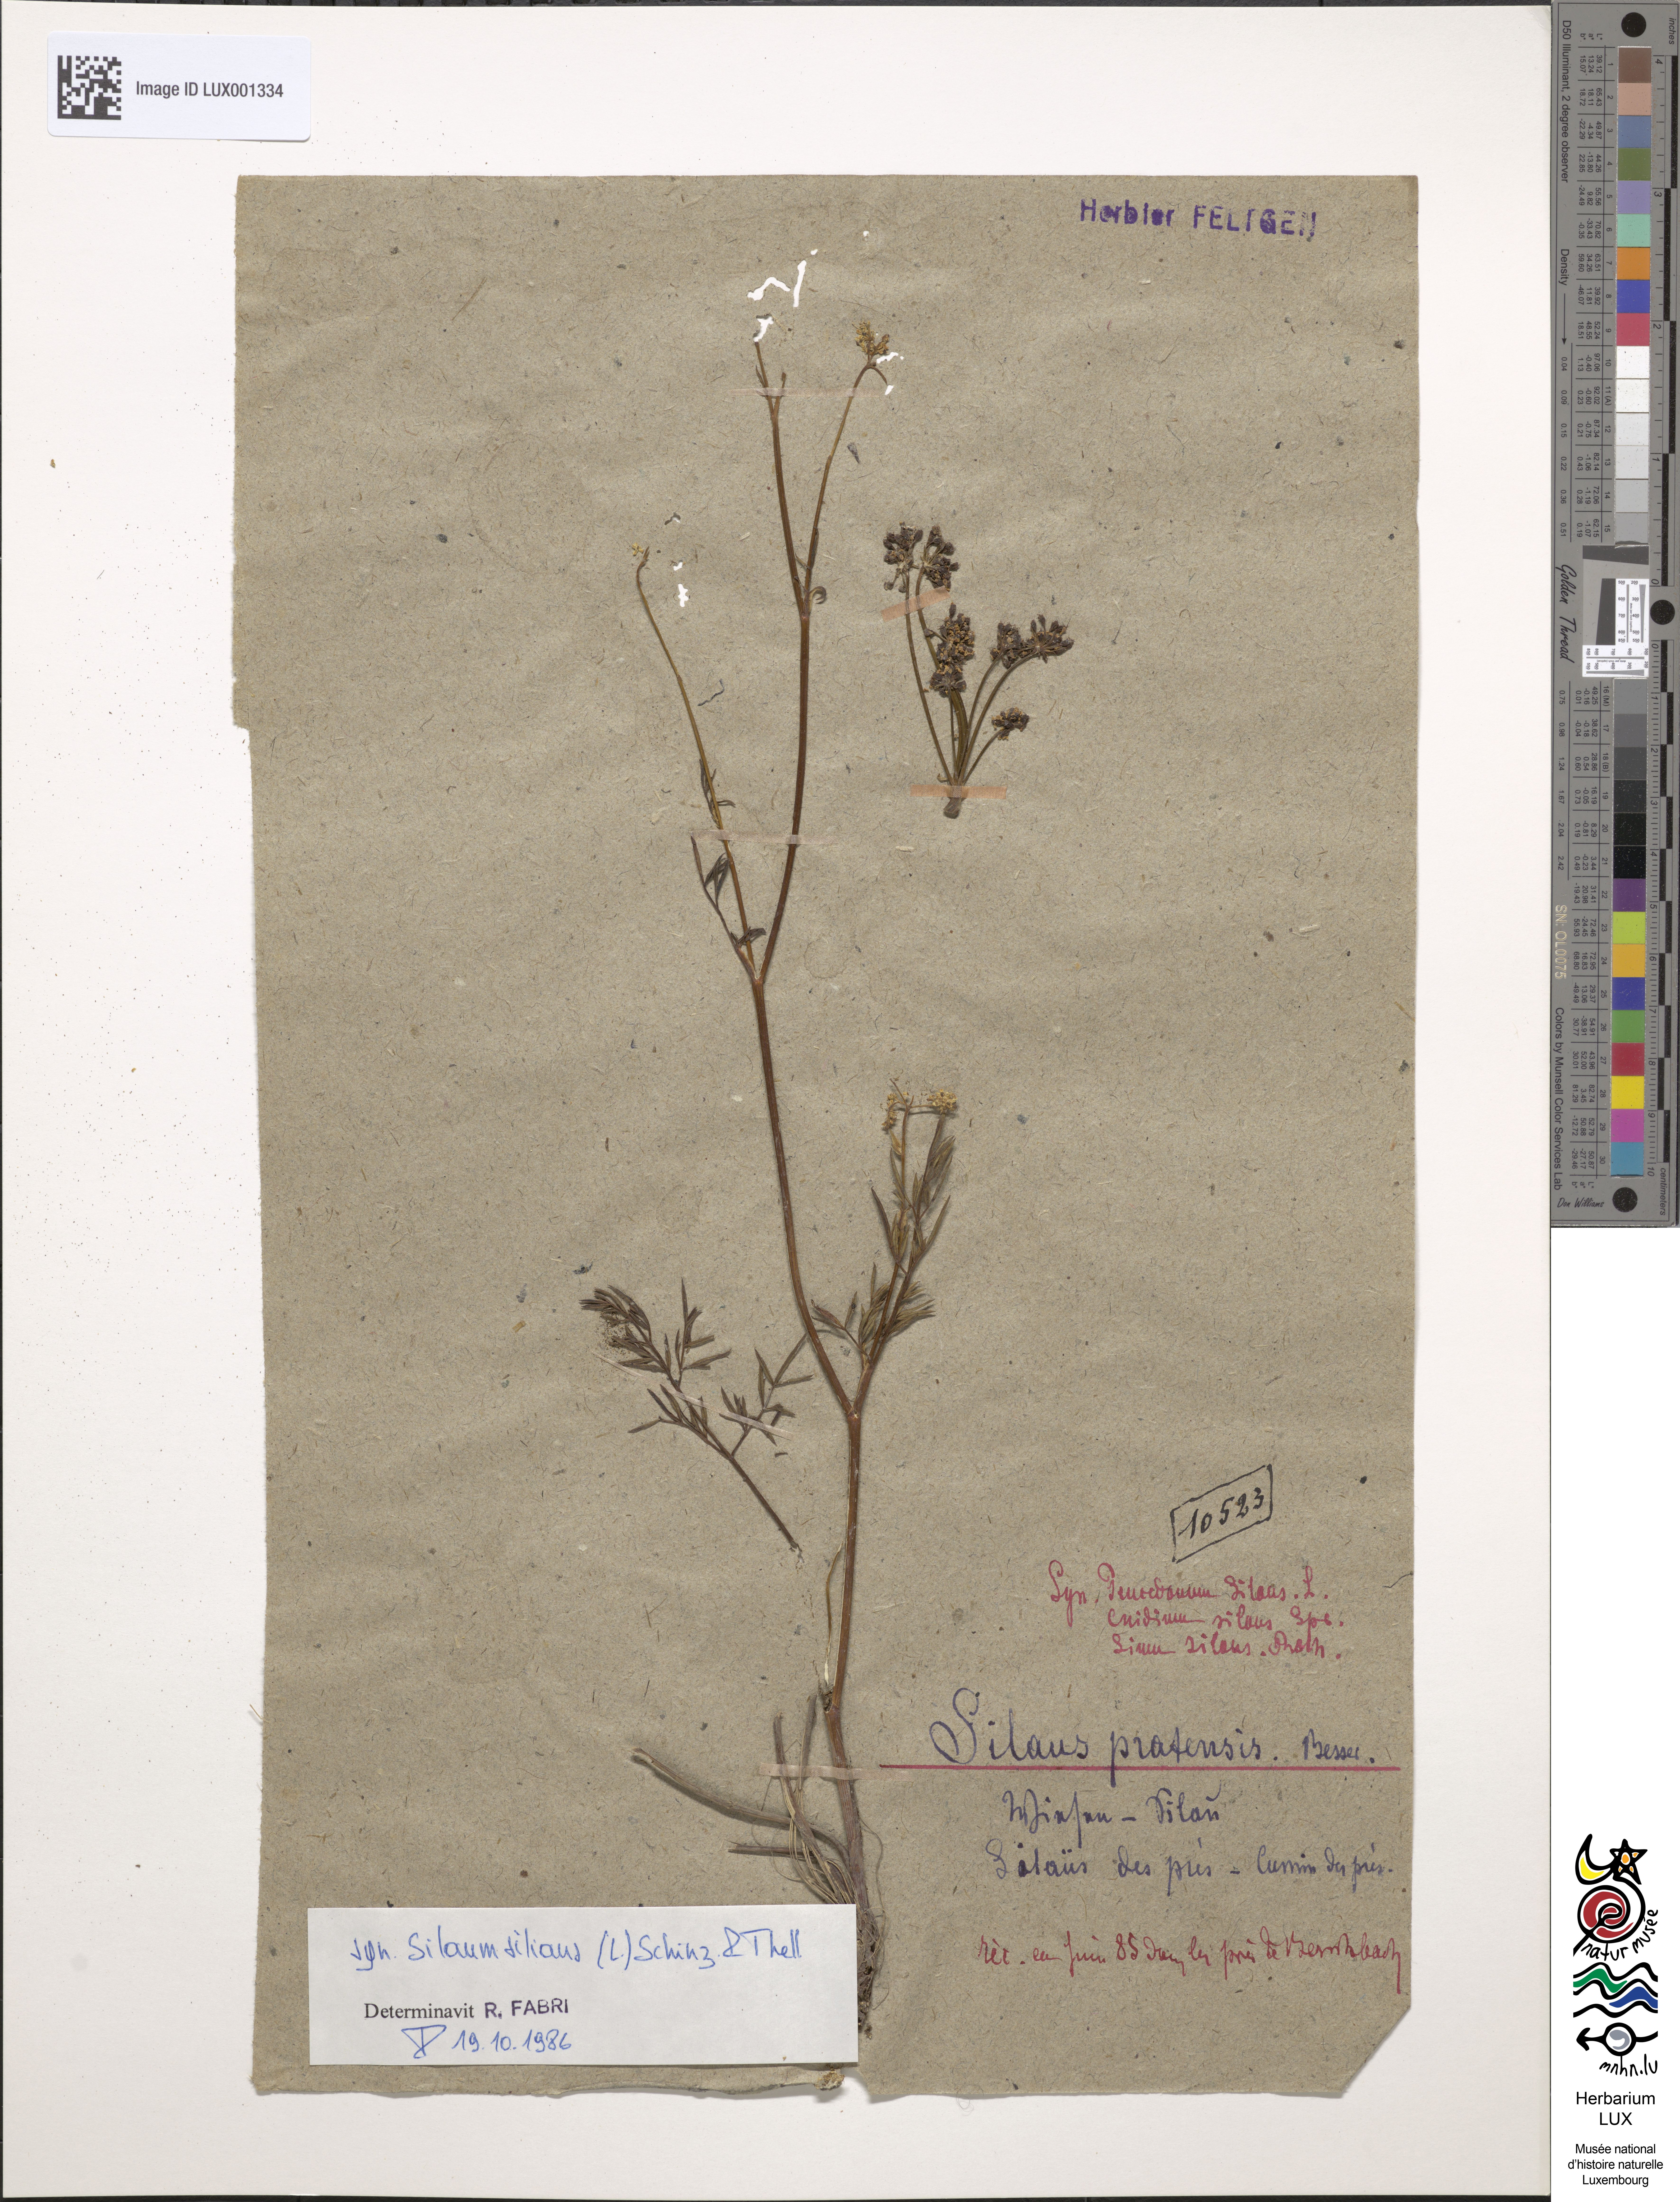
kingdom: Plantae
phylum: Tracheophyta
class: Magnoliopsida
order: Apiales
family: Apiaceae
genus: Silaum
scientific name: Silaum silaus
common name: Pepper-saxifrage
